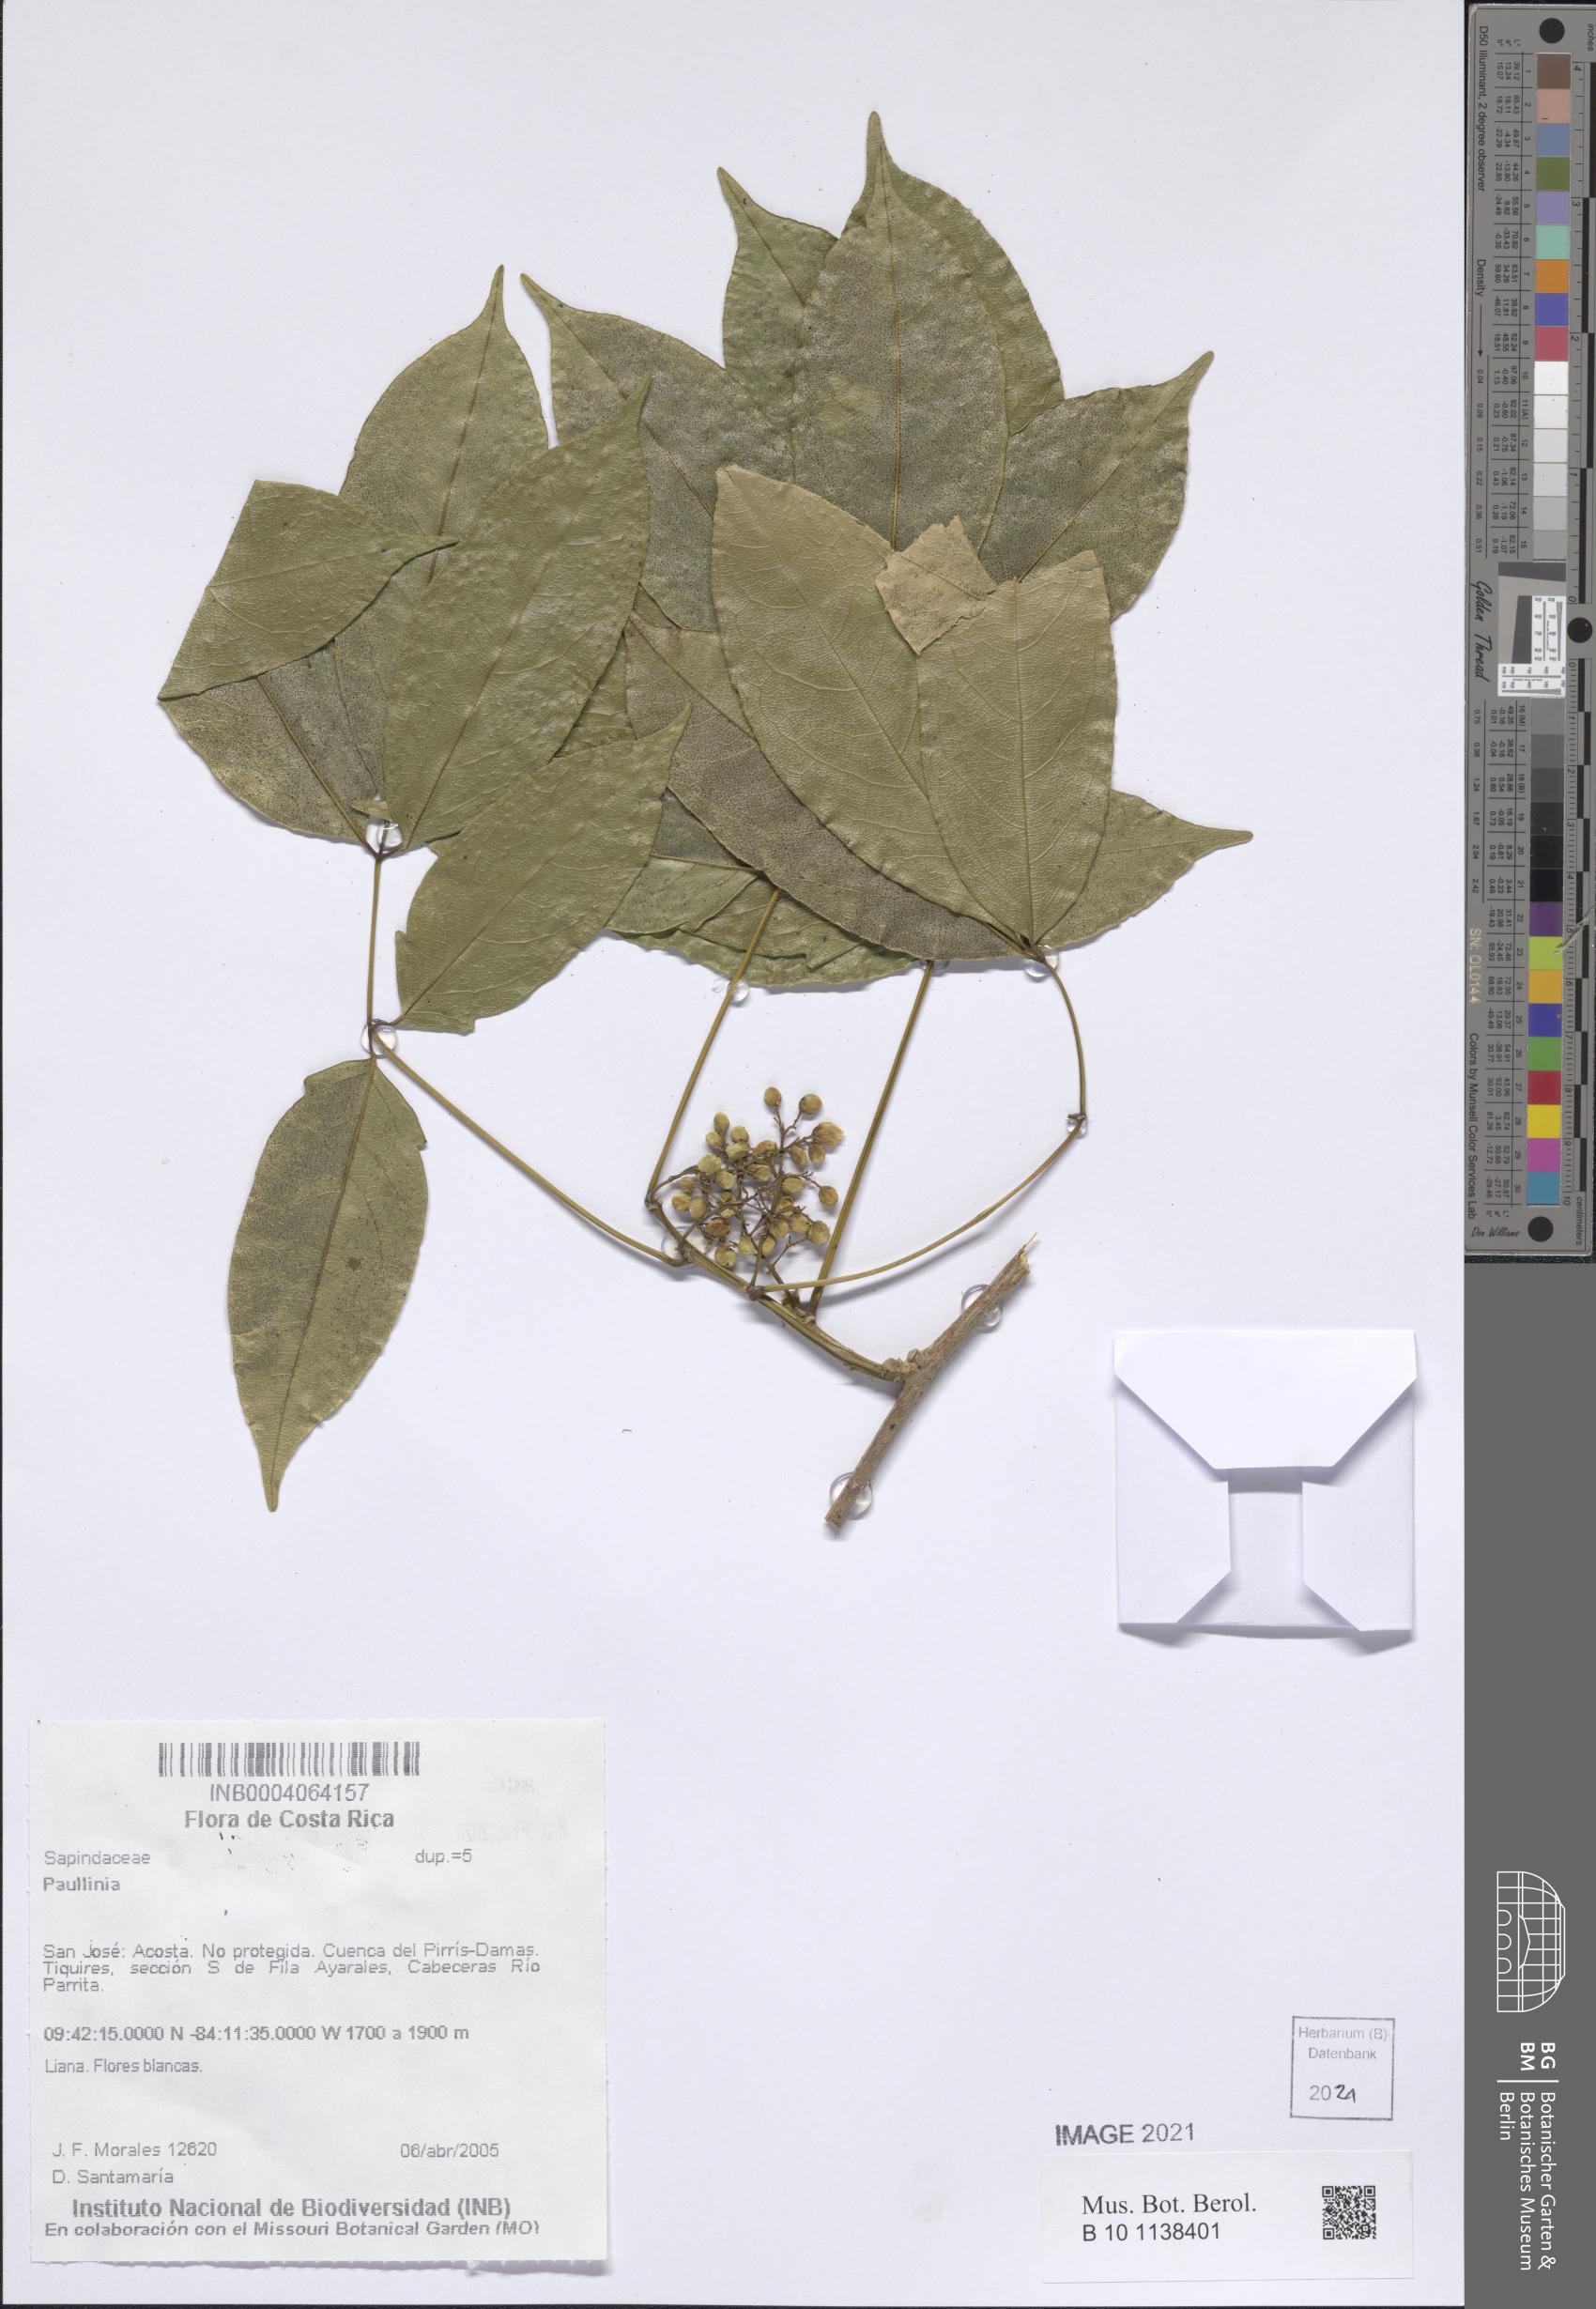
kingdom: Plantae
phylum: Tracheophyta
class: Magnoliopsida
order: Sapindales
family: Sapindaceae
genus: Paullinia
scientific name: Paullinia
